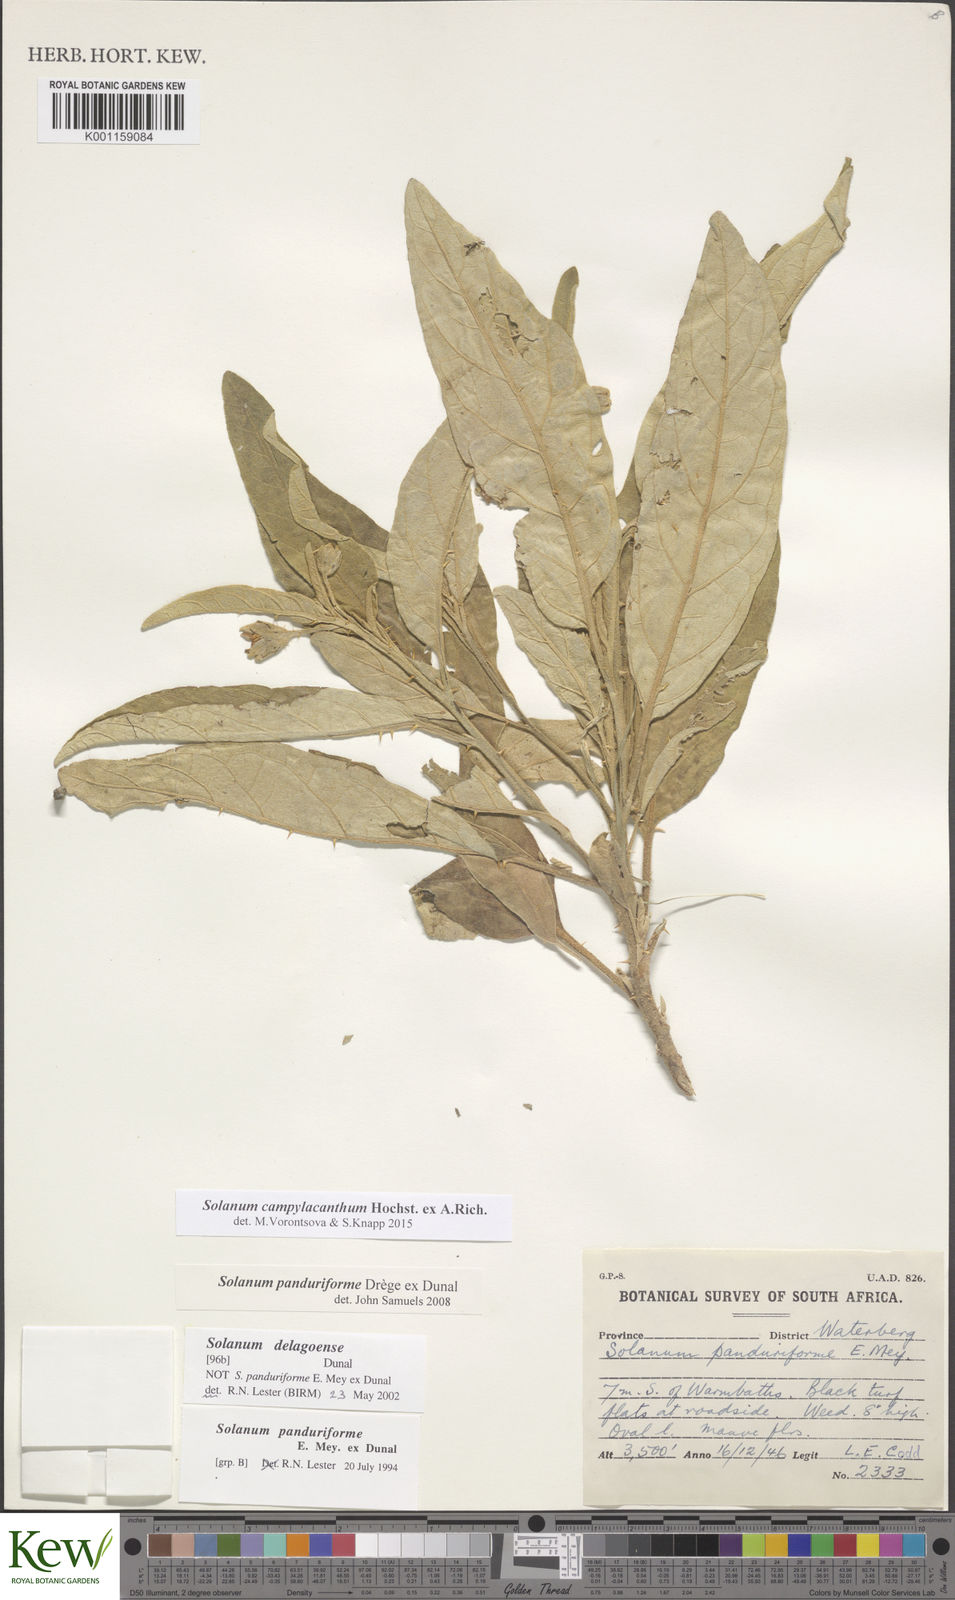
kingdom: Plantae
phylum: Tracheophyta
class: Magnoliopsida
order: Solanales
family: Solanaceae
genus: Solanum
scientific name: Solanum campylacanthum
